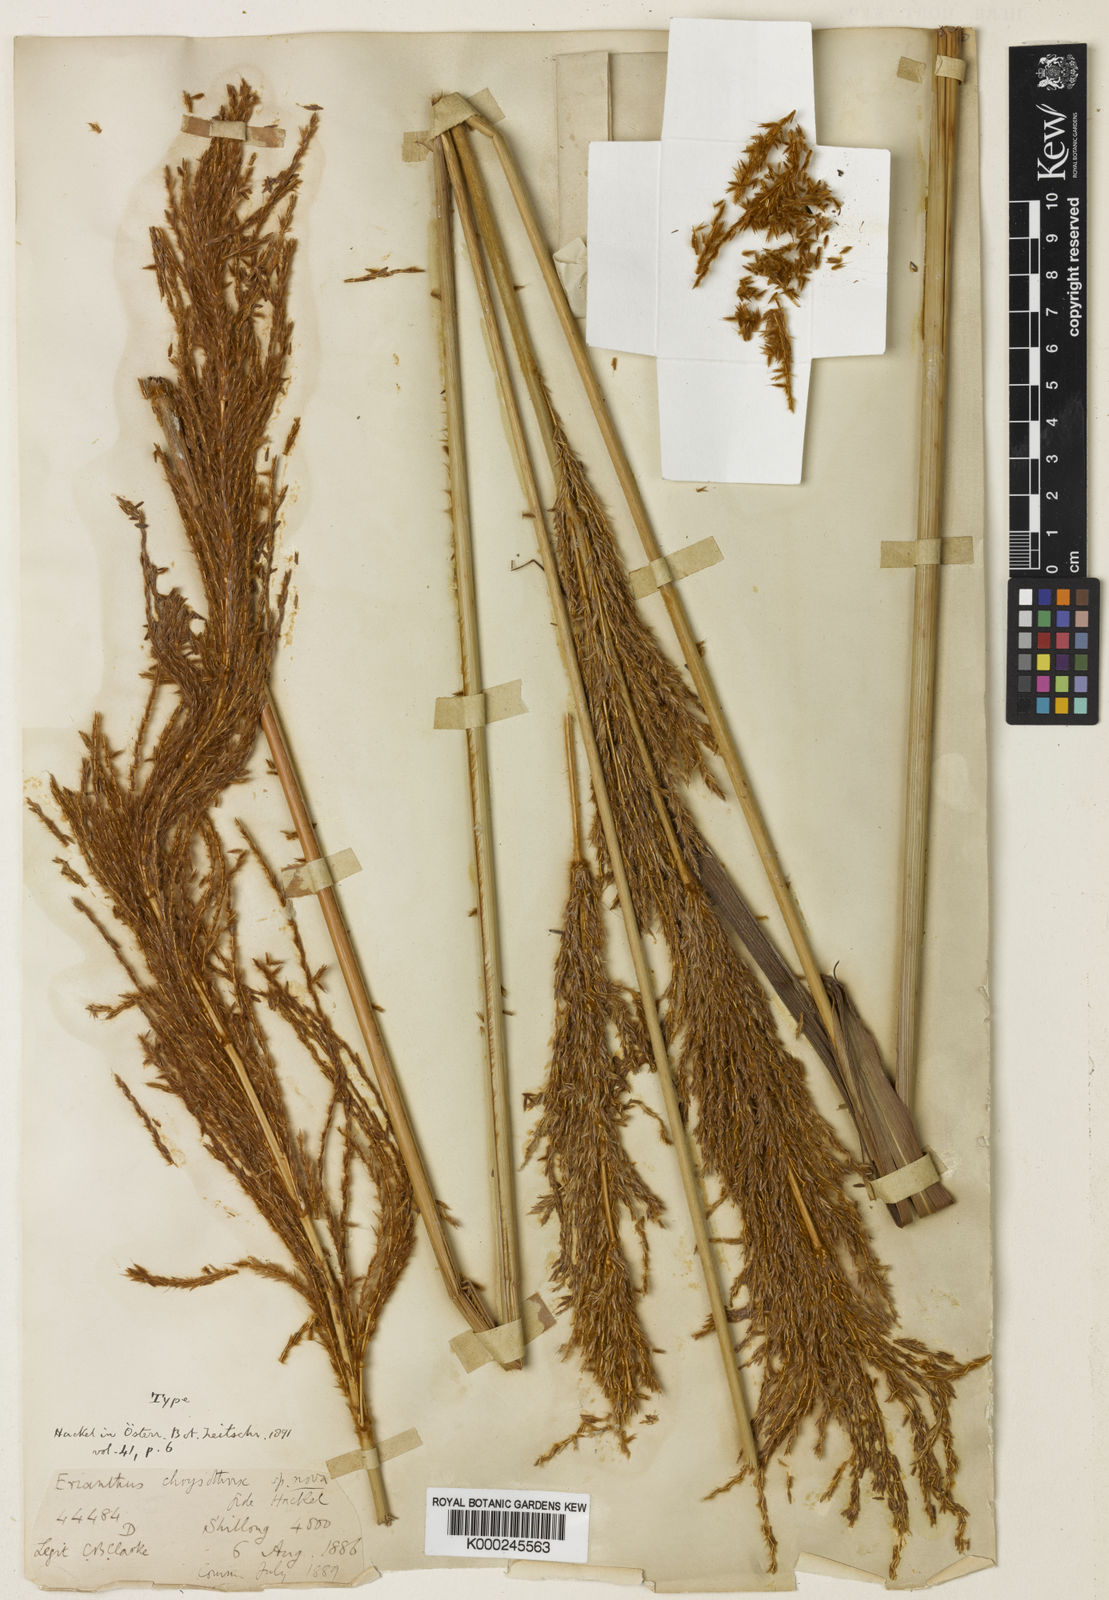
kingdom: Plantae
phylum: Tracheophyta
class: Liliopsida
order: Poales
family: Poaceae
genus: Narenga
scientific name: Narenga fallax
